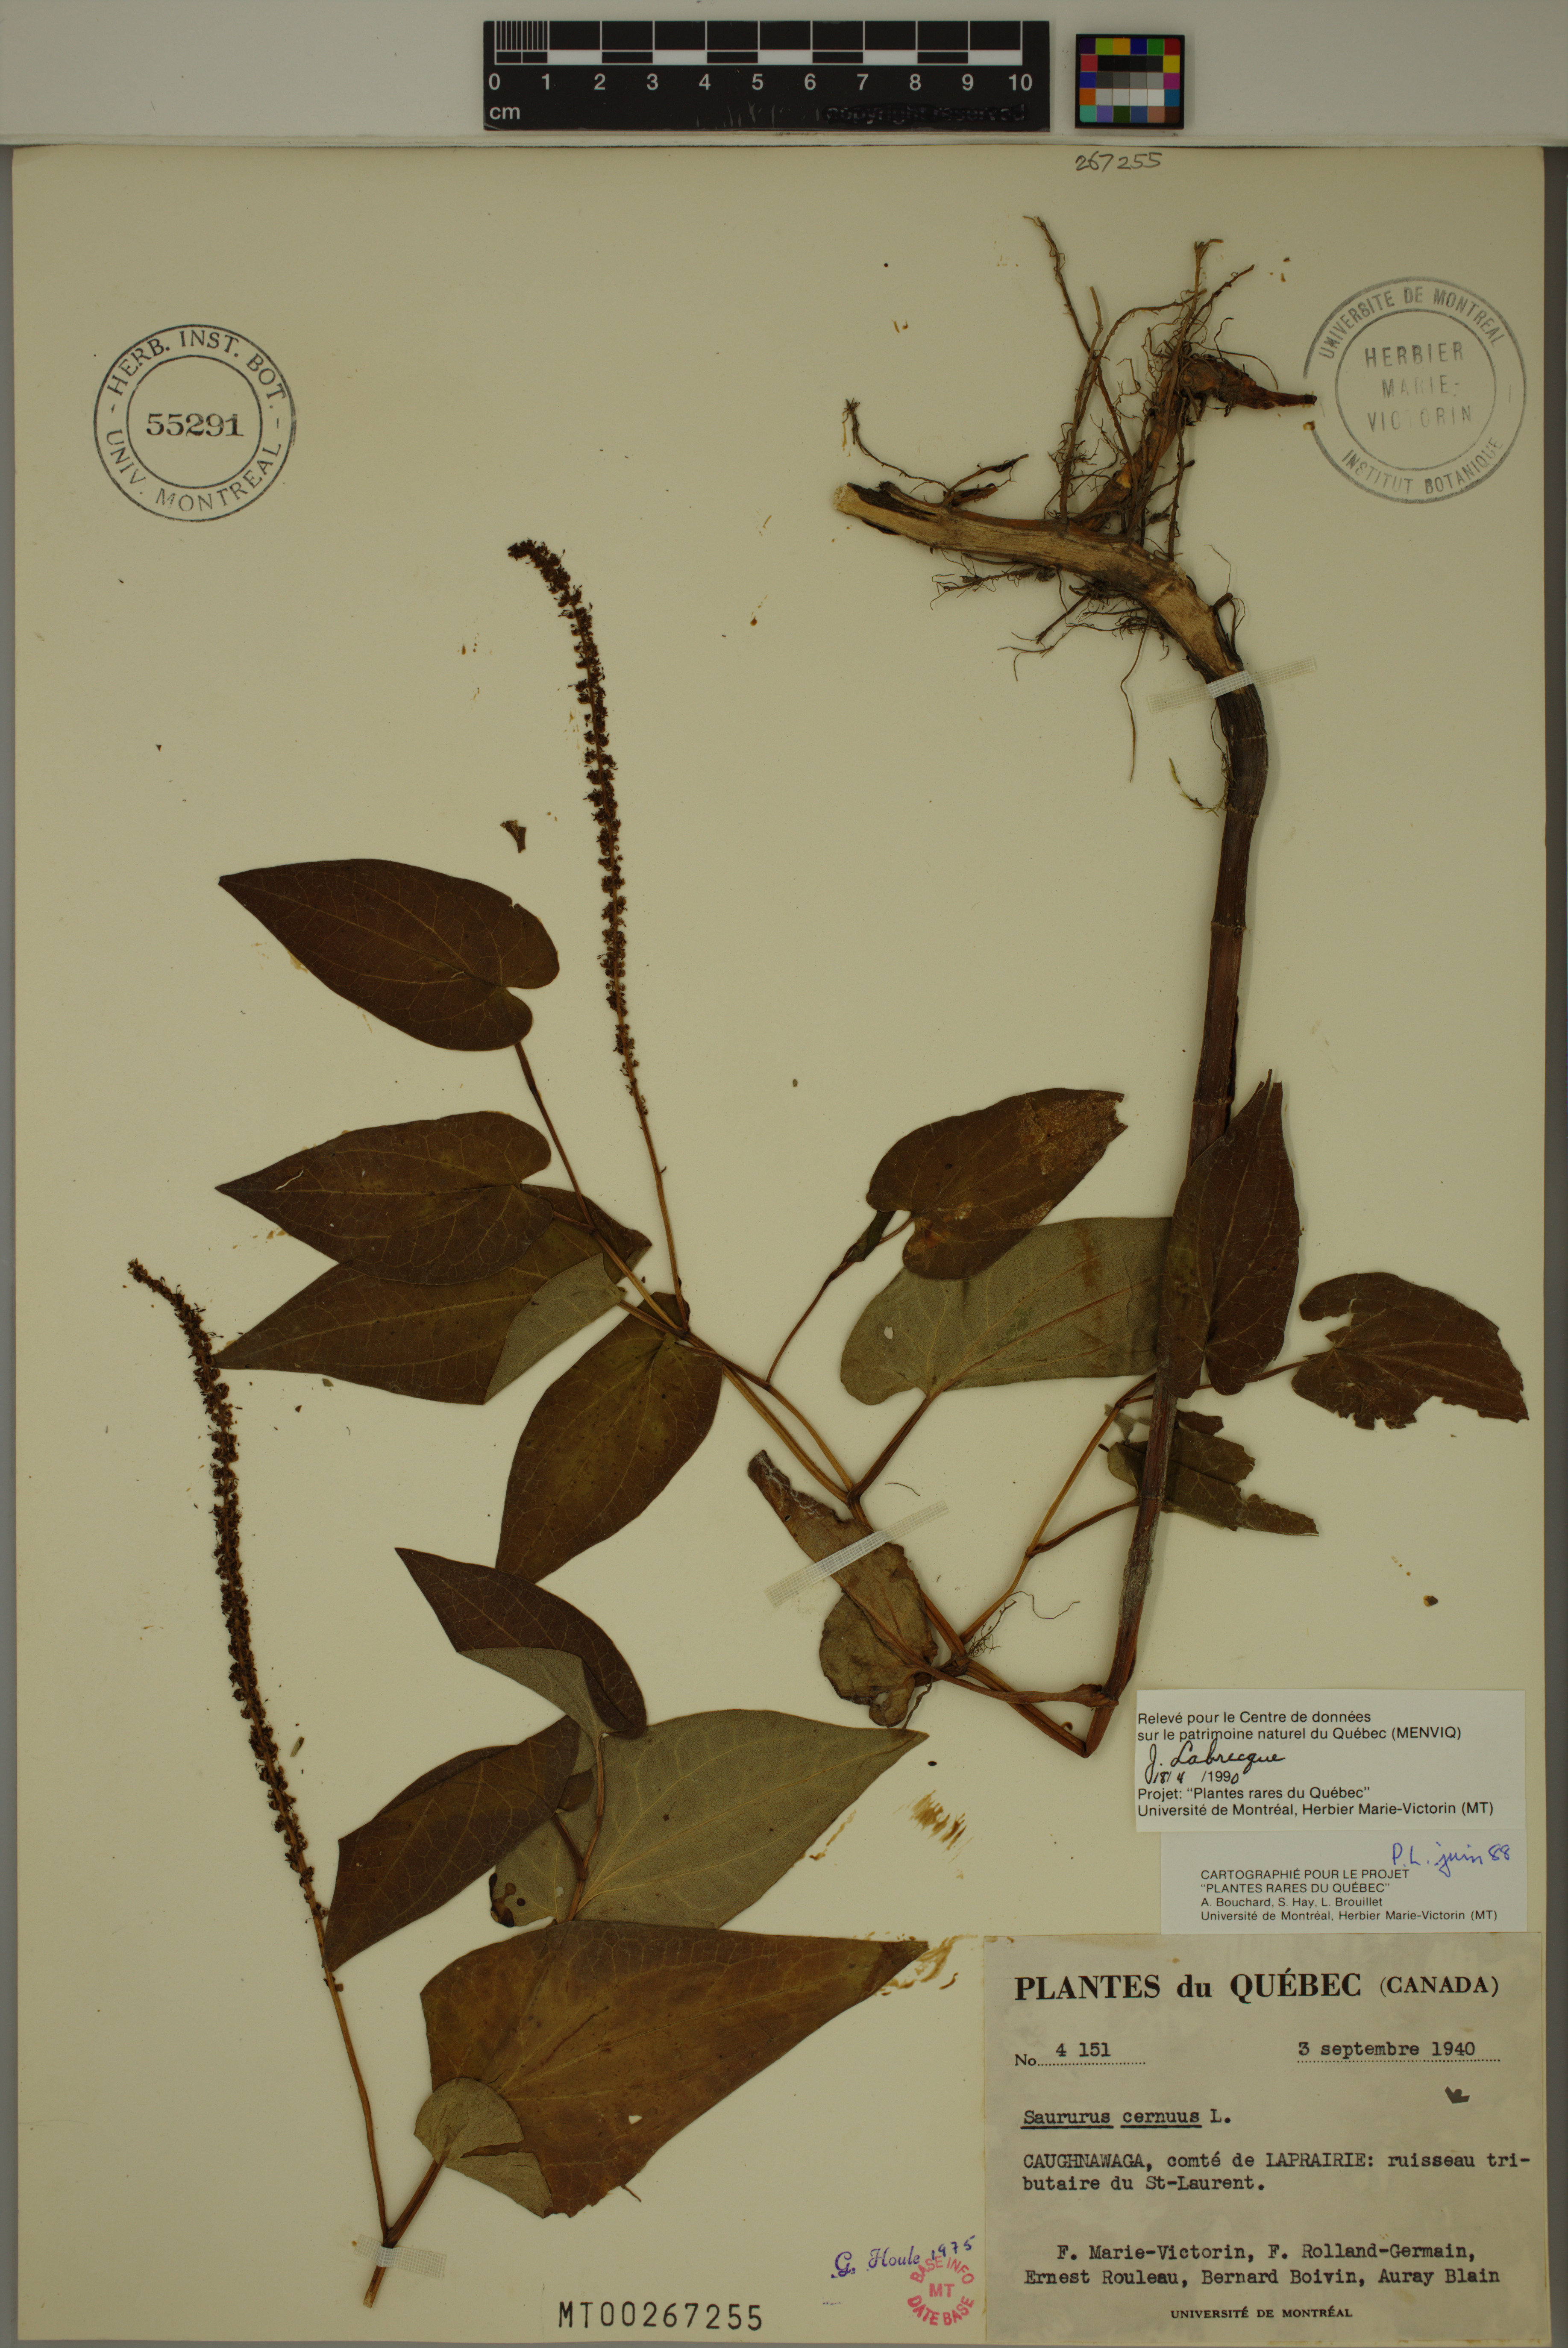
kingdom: Plantae
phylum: Tracheophyta
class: Magnoliopsida
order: Piperales
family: Saururaceae
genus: Saururus
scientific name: Saururus cernuus
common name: Lizard's-tail
